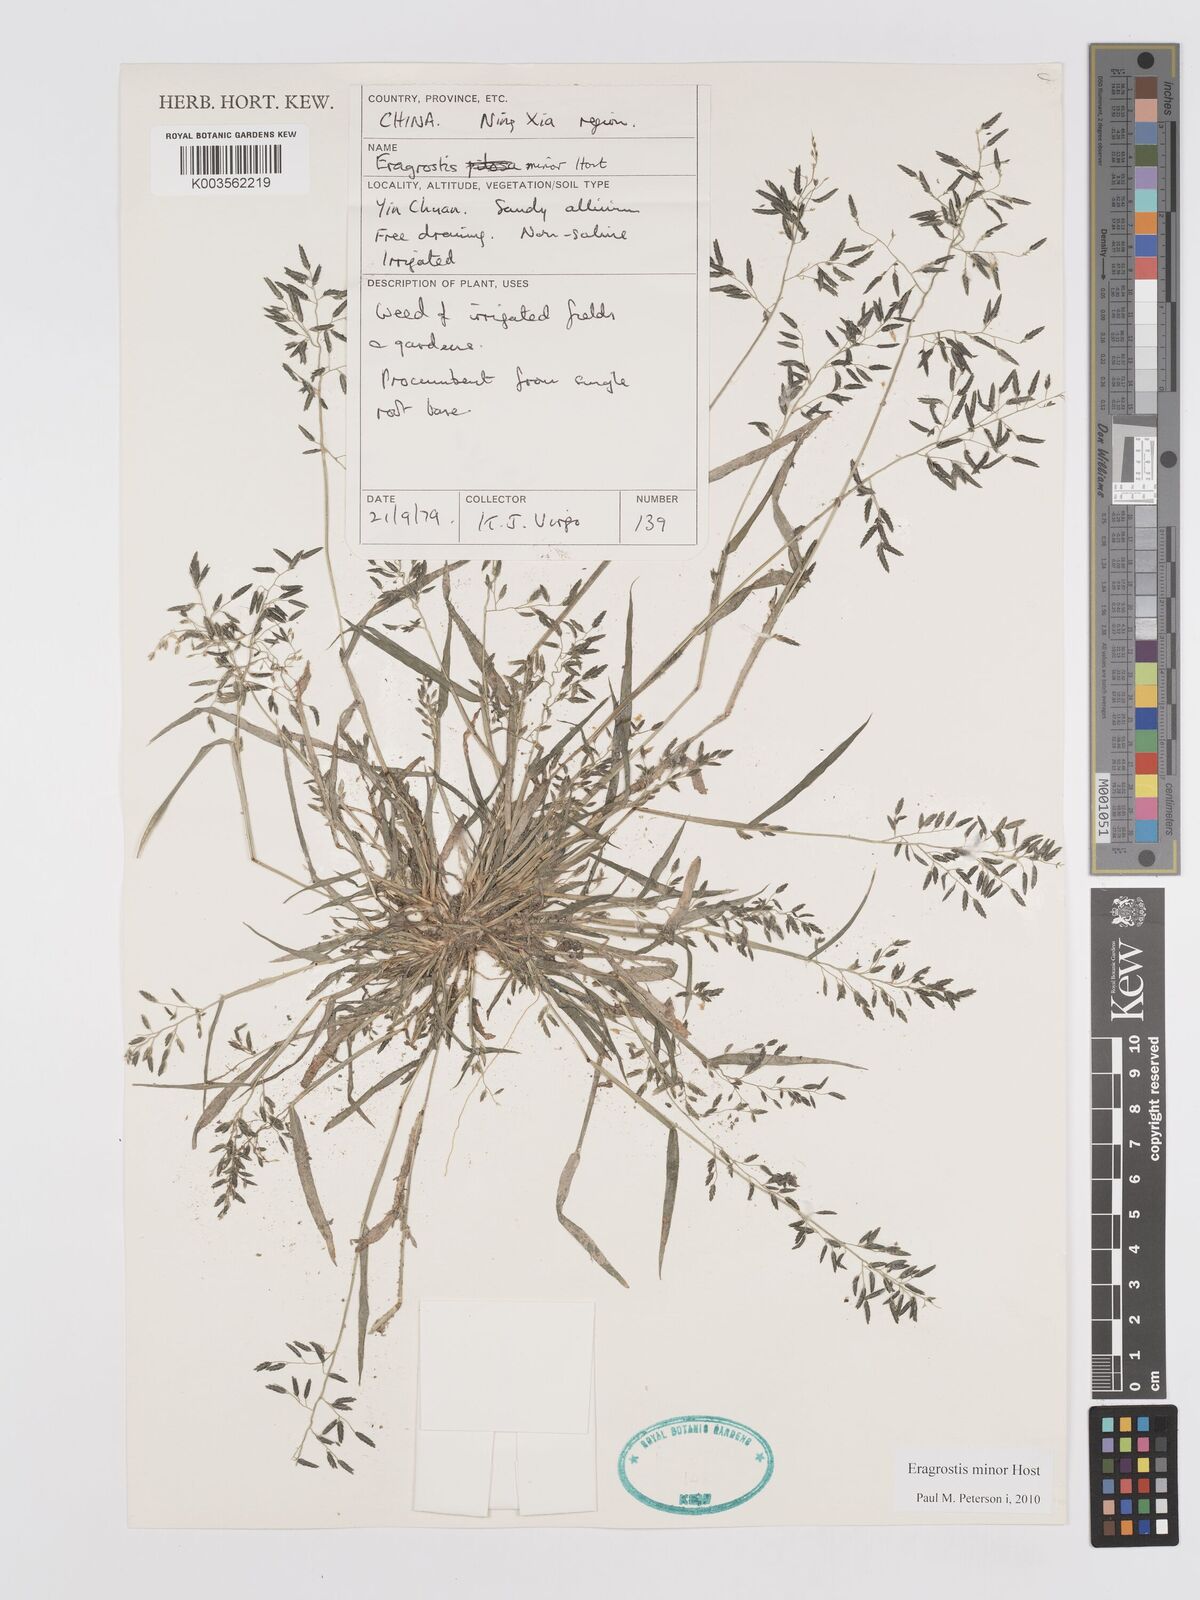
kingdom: Plantae
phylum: Tracheophyta
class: Liliopsida
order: Poales
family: Poaceae
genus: Eragrostis
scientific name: Eragrostis minor
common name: Small love-grass
